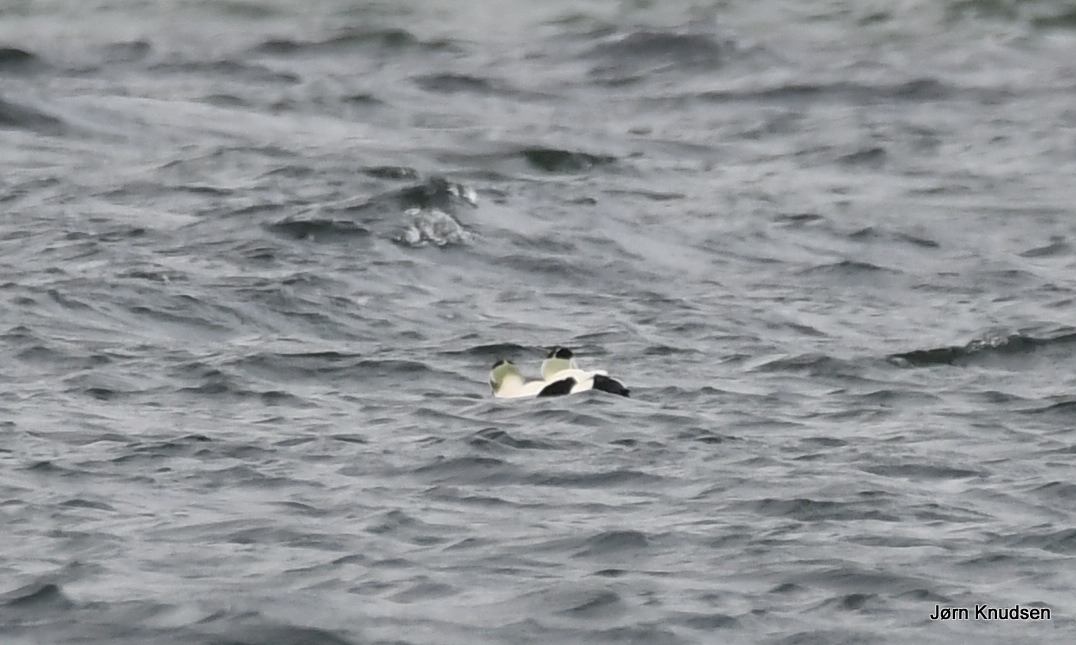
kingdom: Animalia
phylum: Chordata
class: Aves
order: Anseriformes
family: Anatidae
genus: Somateria
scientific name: Somateria mollissima
